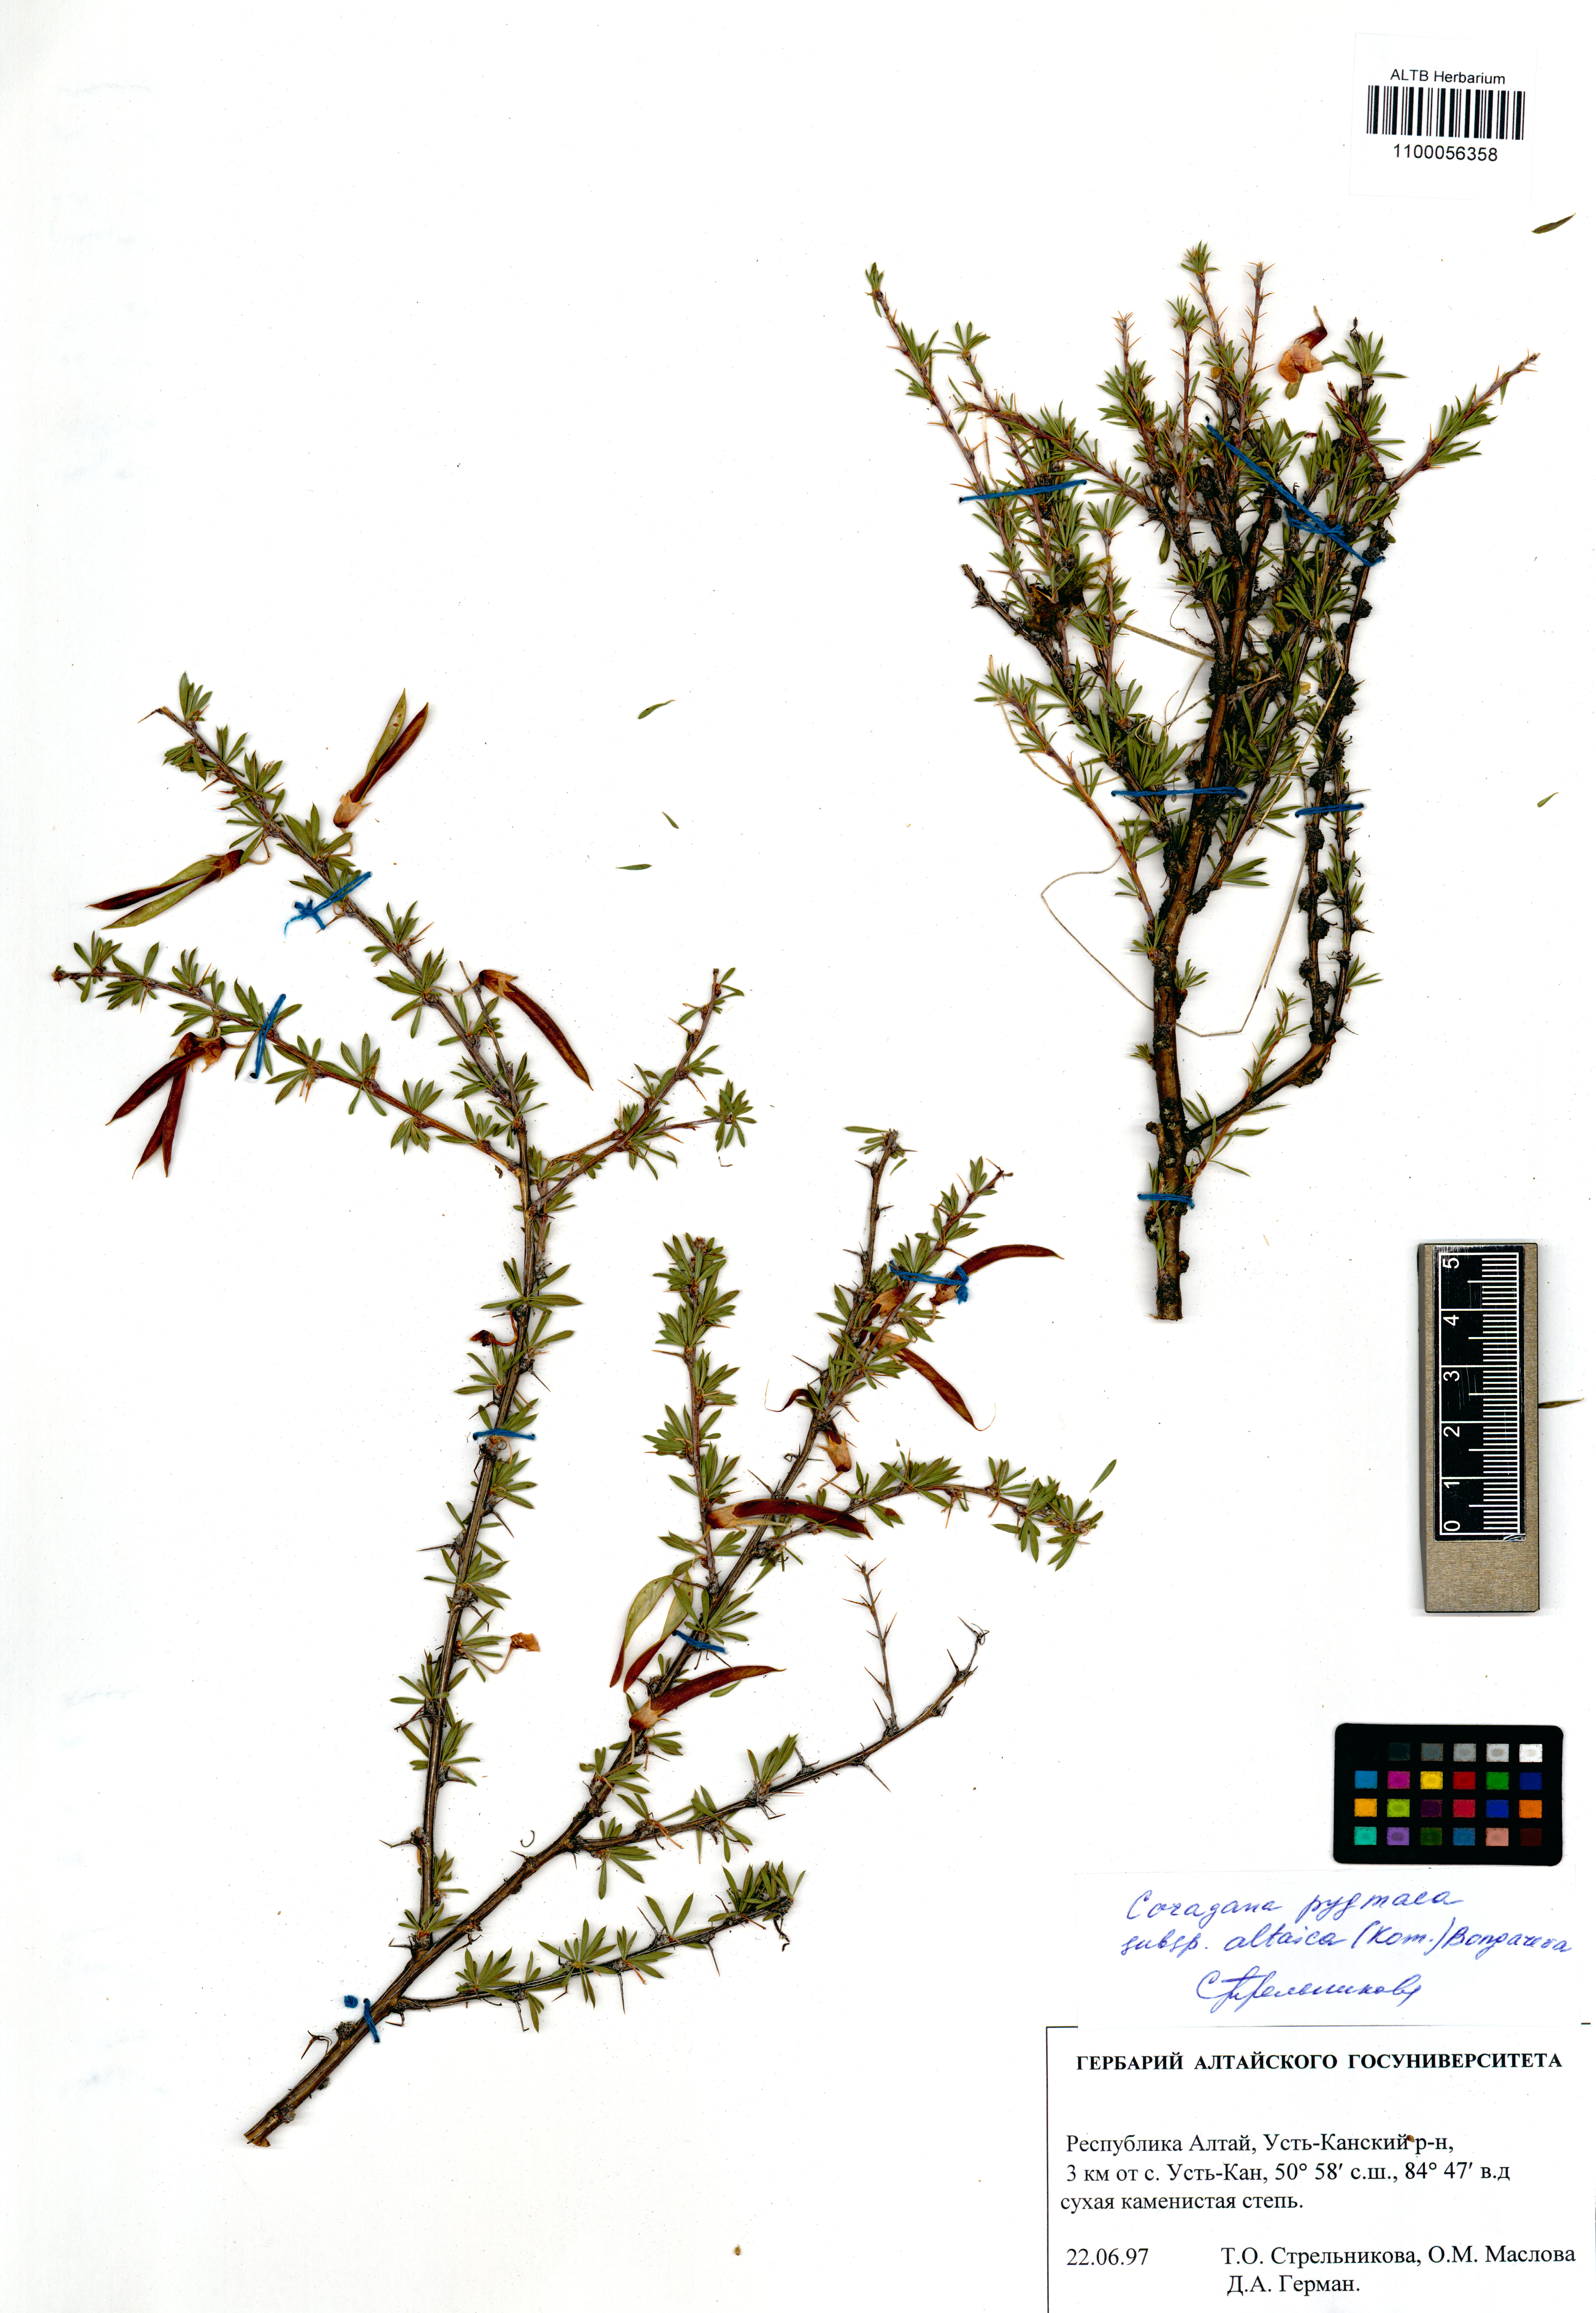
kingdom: Plantae
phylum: Tracheophyta
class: Magnoliopsida
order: Fabales
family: Fabaceae
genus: Caragana
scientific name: Caragana pygmaea
